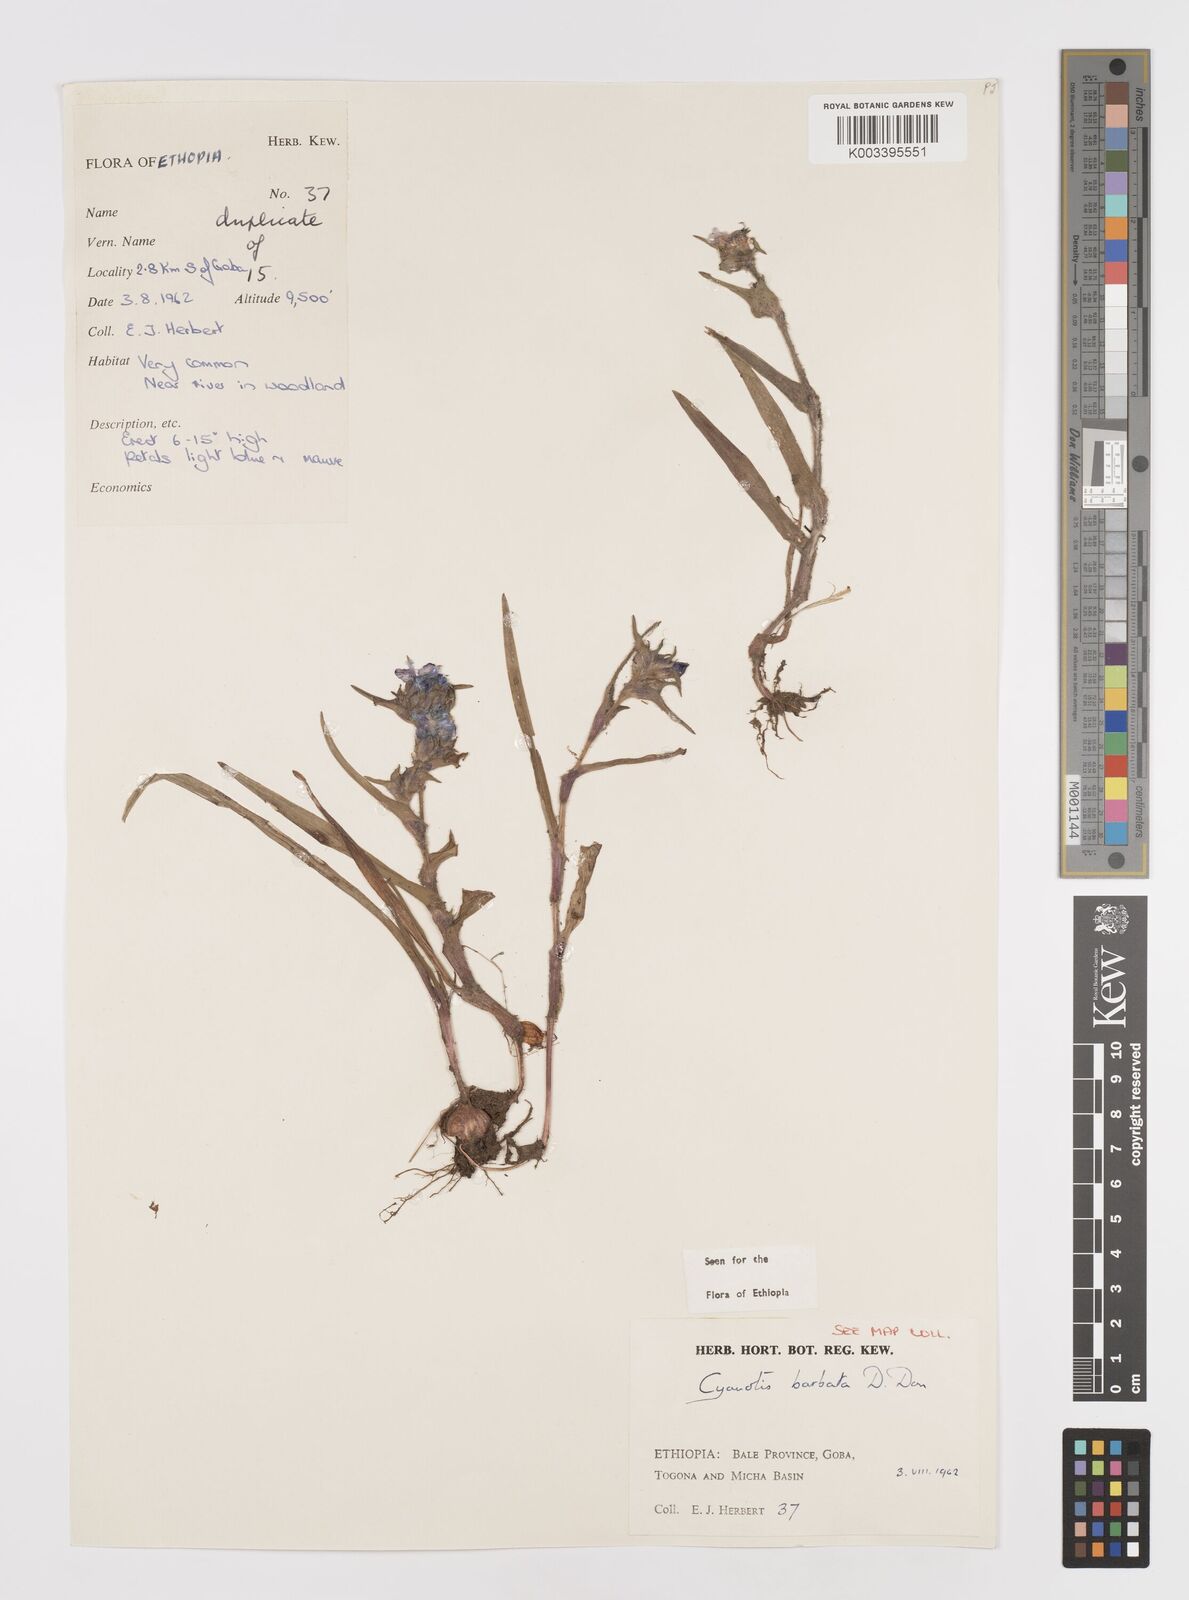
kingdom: Plantae
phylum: Tracheophyta
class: Liliopsida
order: Commelinales
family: Commelinaceae
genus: Cyanotis
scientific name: Cyanotis vaga
